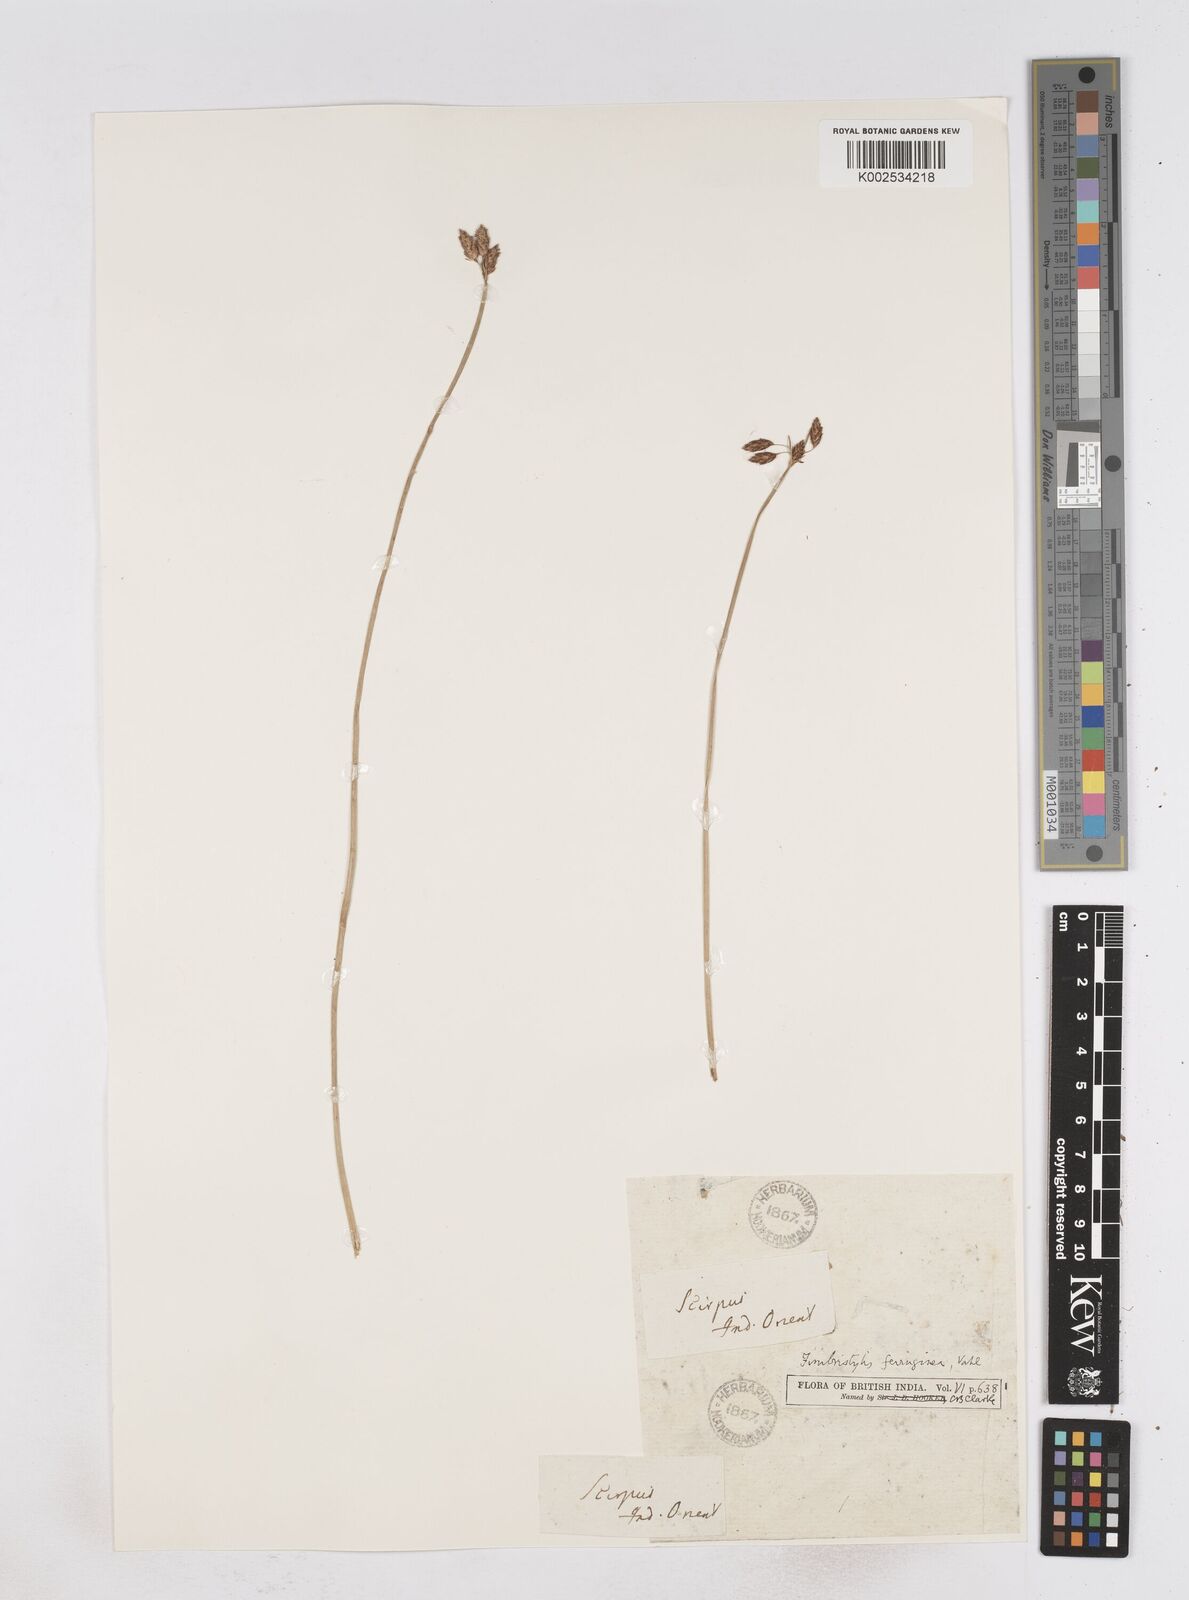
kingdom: Plantae
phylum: Tracheophyta
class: Liliopsida
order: Poales
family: Cyperaceae
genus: Fimbristylis
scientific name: Fimbristylis ferruginea
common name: West indian fimbry
